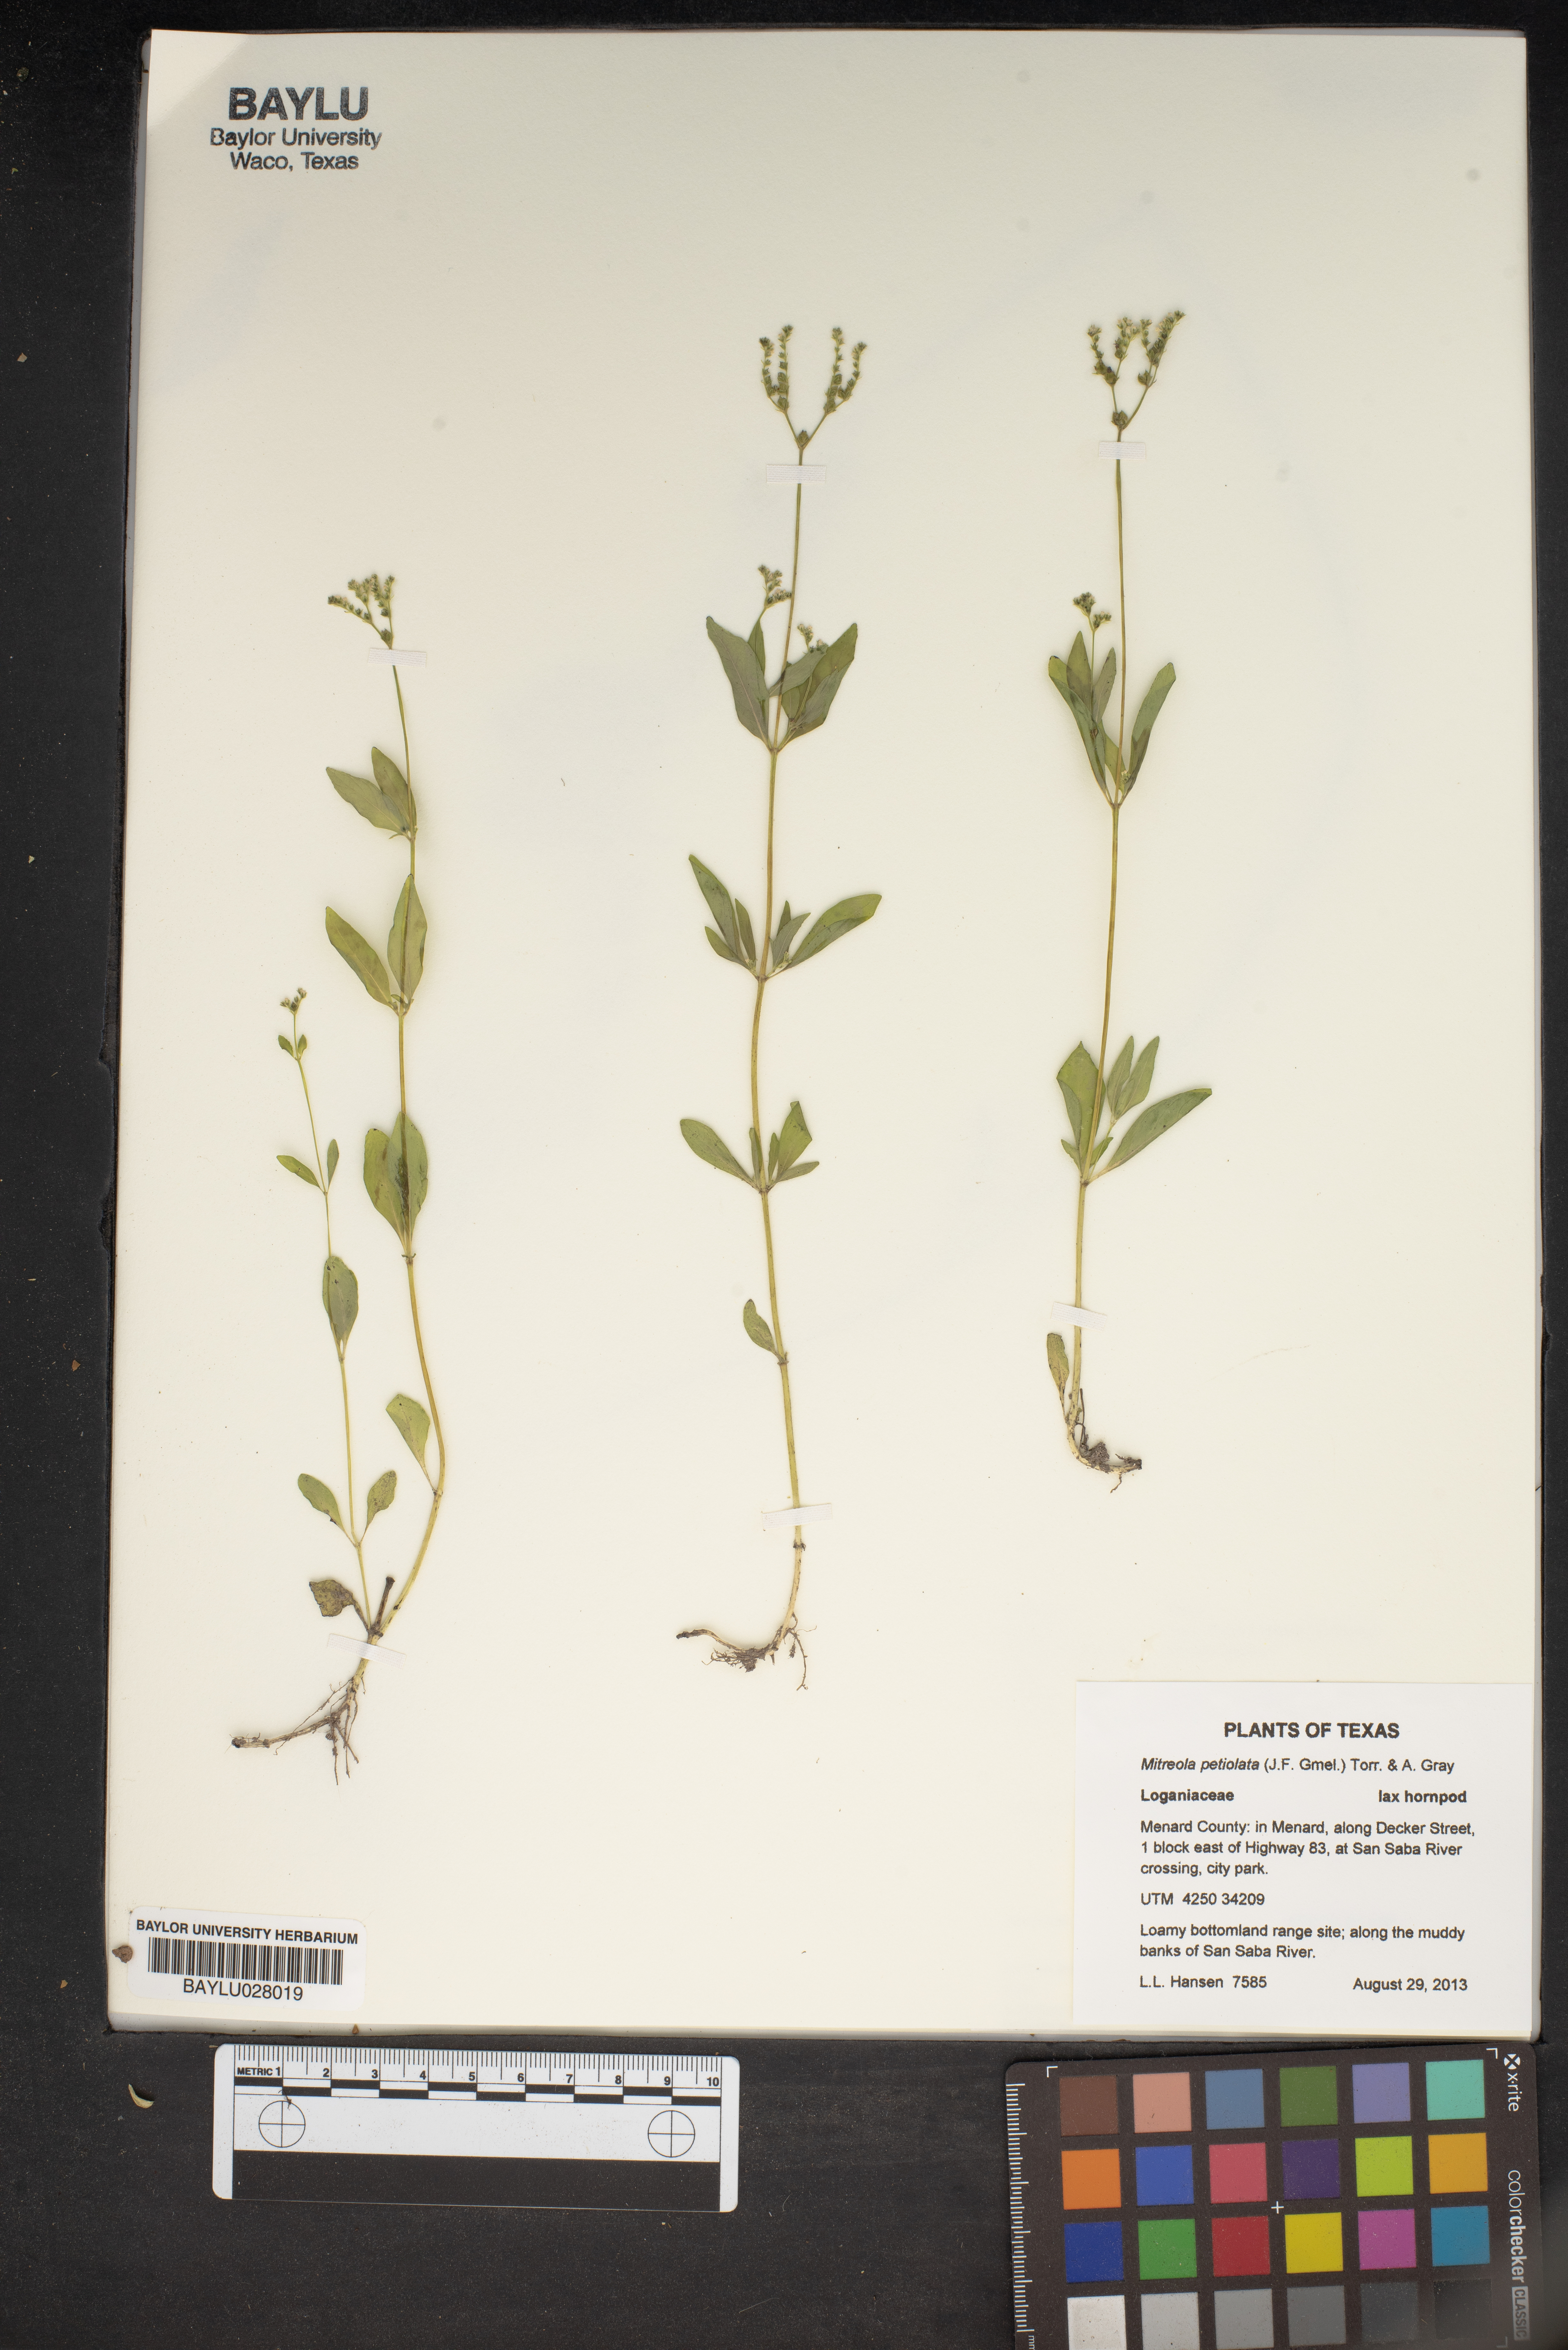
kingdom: Plantae
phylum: Tracheophyta
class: Magnoliopsida
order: Gentianales
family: Loganiaceae
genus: Mitreola
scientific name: Mitreola petiolata
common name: Lax hornpod
